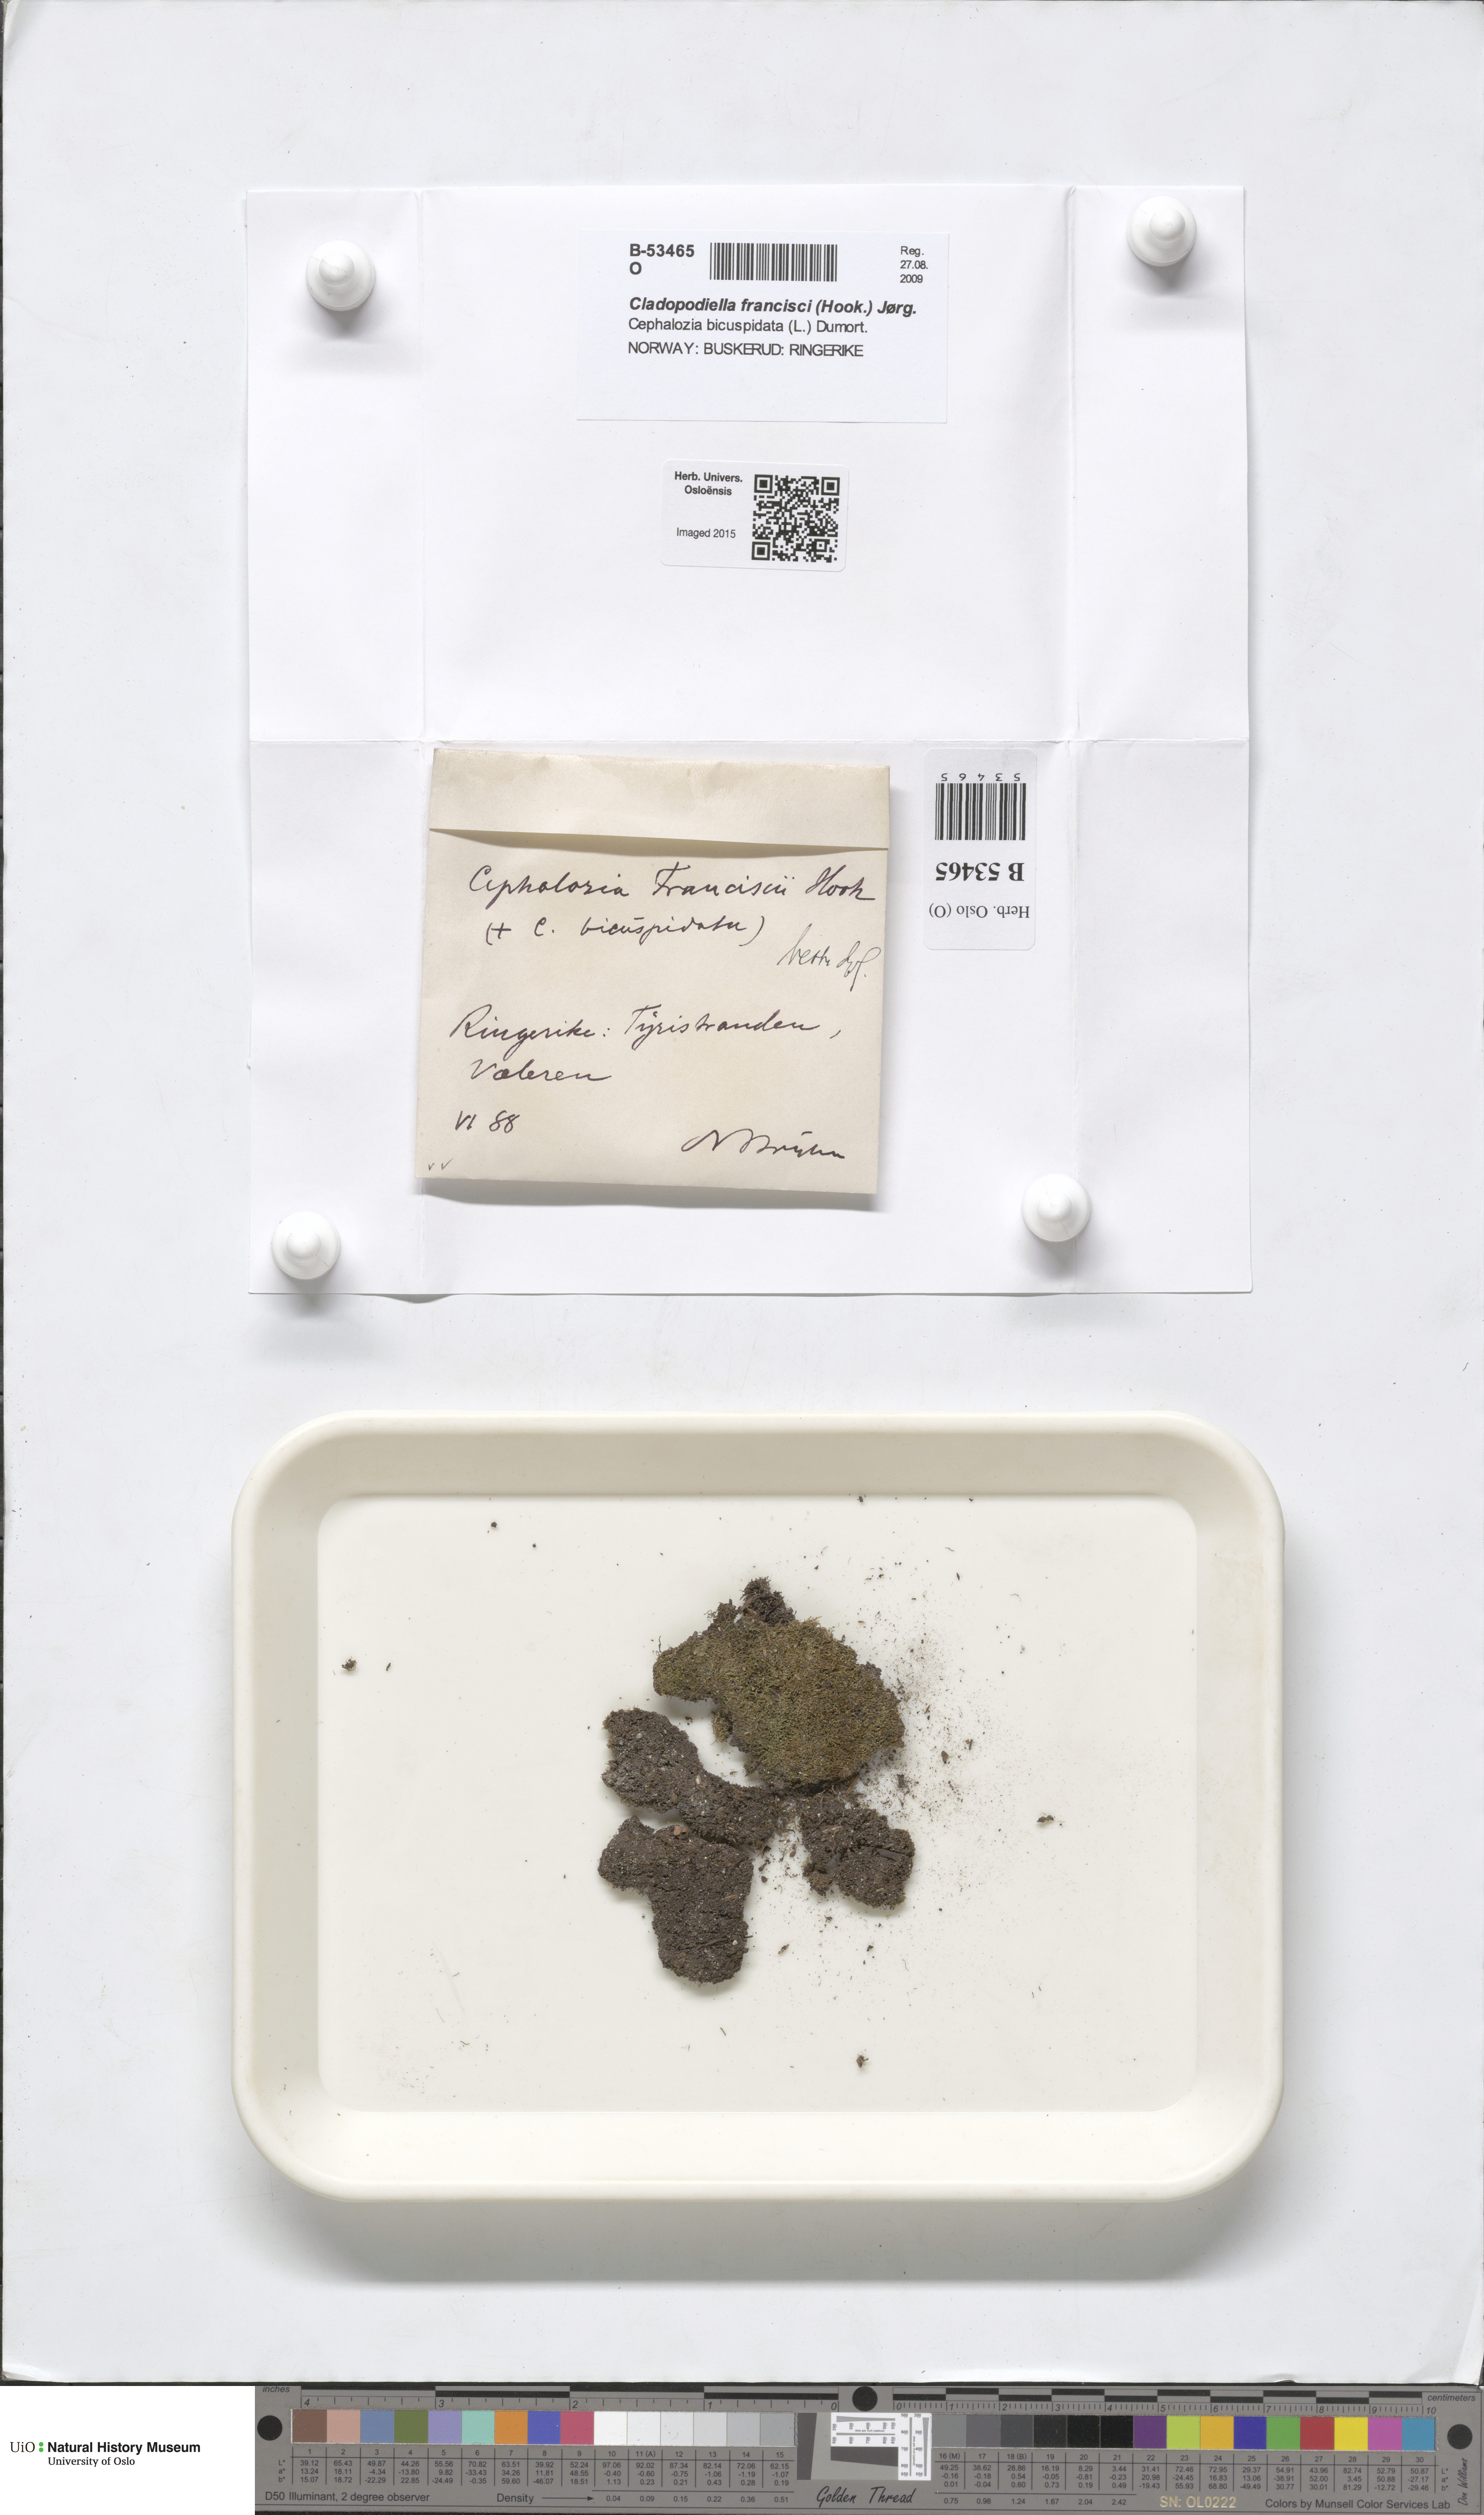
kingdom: Plantae
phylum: Marchantiophyta
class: Jungermanniopsida
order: Jungermanniales
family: Cephaloziaceae
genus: Odontoschisma
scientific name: Odontoschisma francisci
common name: Holt notchwort
